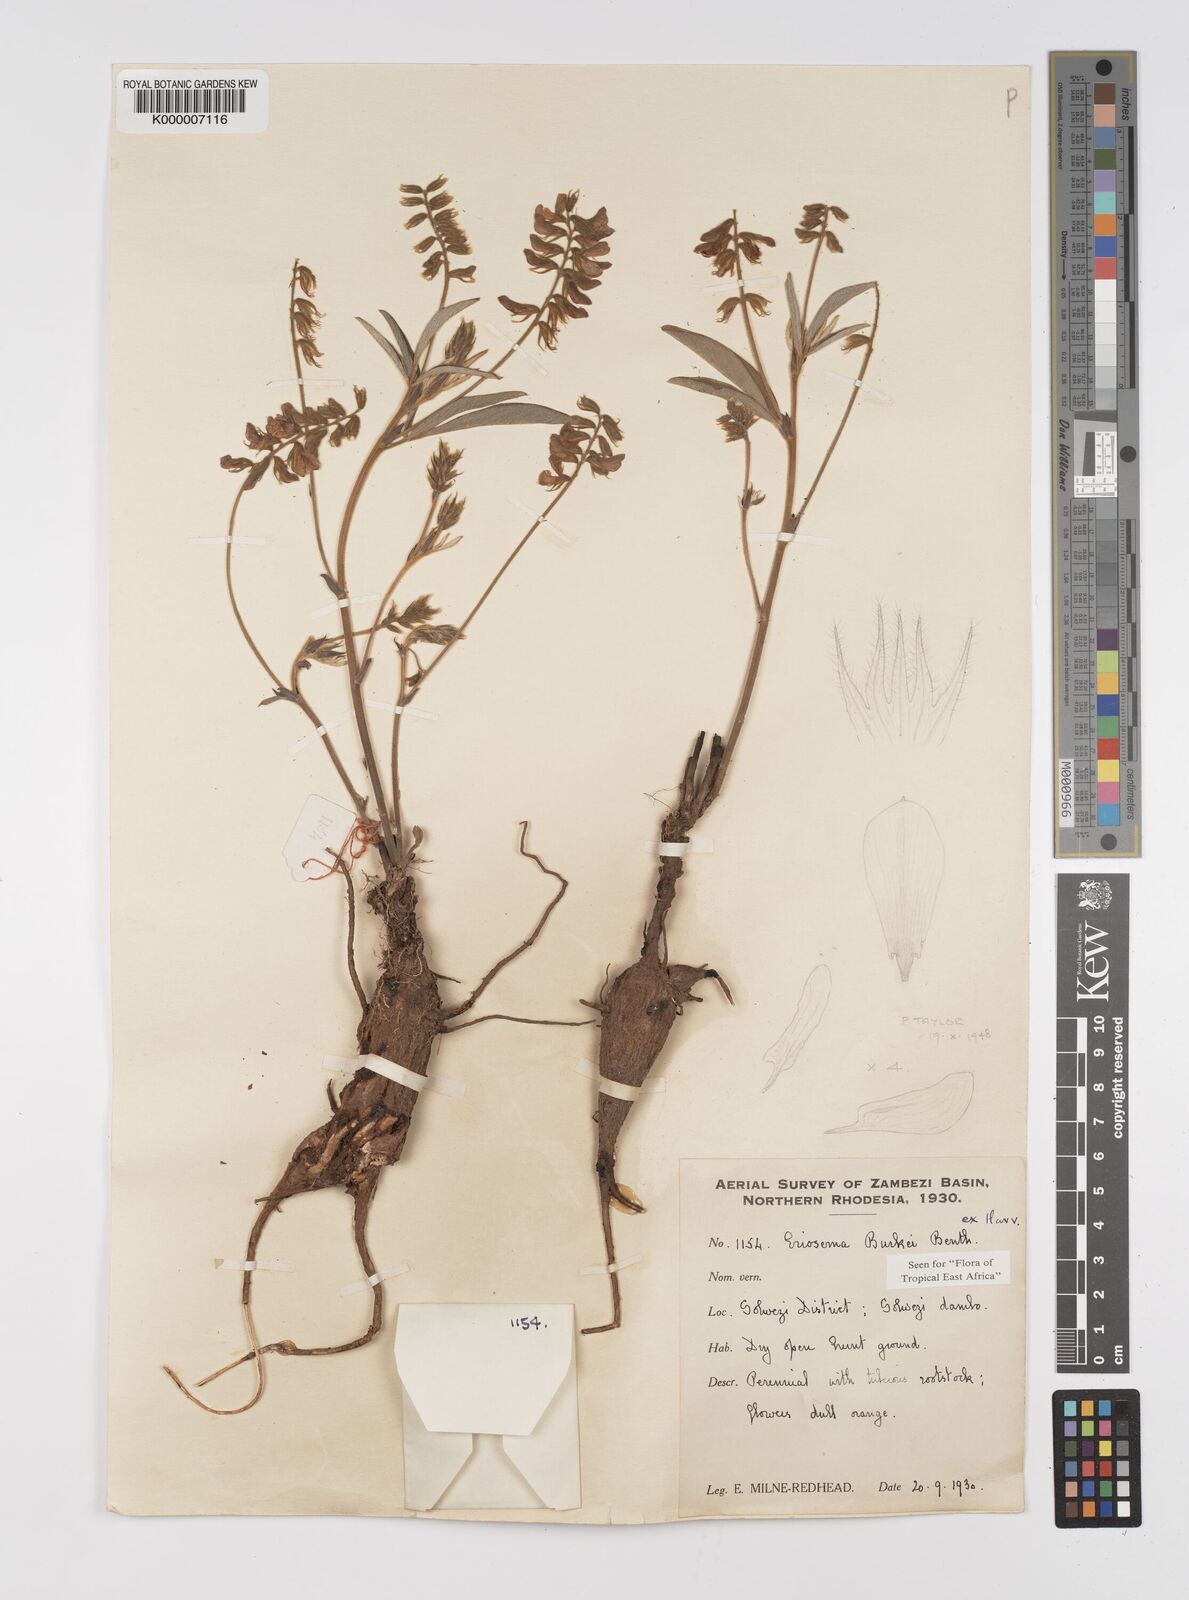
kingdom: Plantae
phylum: Tracheophyta
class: Magnoliopsida
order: Fabales
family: Fabaceae
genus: Eriosema
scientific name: Eriosema burkei
